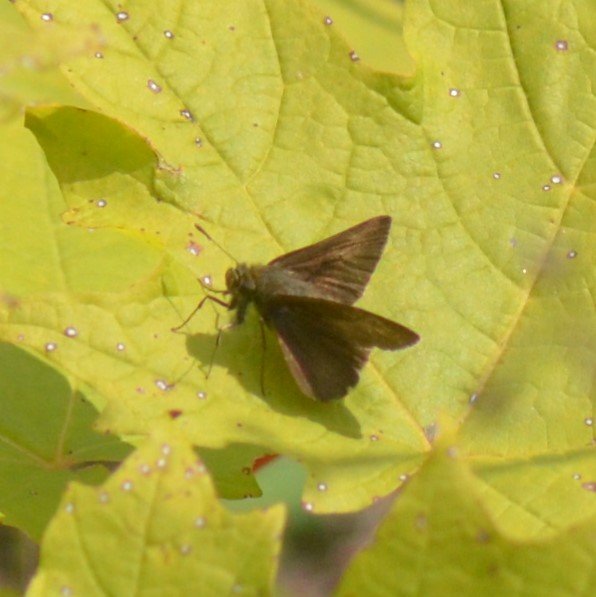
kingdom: Animalia
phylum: Arthropoda
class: Insecta
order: Lepidoptera
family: Hesperiidae
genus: Euphyes
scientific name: Euphyes vestris
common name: Dun Skipper
